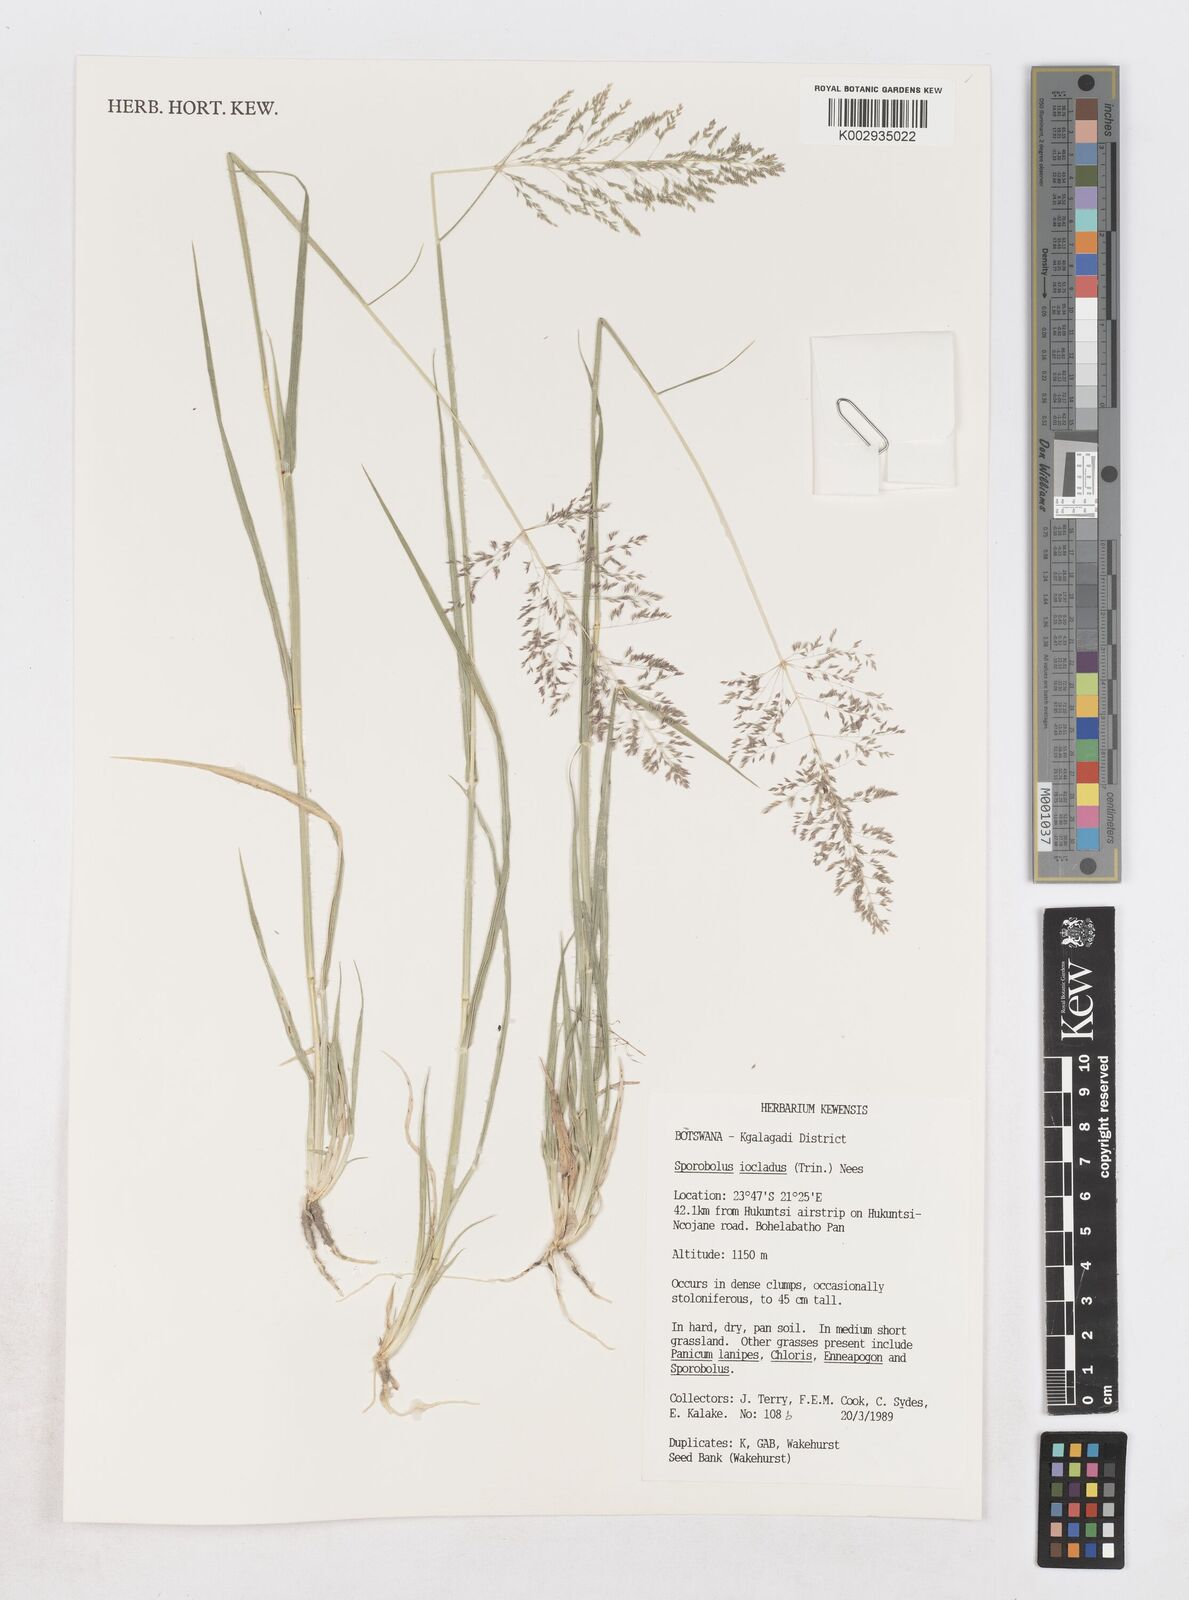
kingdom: Plantae
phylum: Tracheophyta
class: Liliopsida
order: Poales
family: Poaceae
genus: Sporobolus
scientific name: Sporobolus ioclados
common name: Pan dropseed
